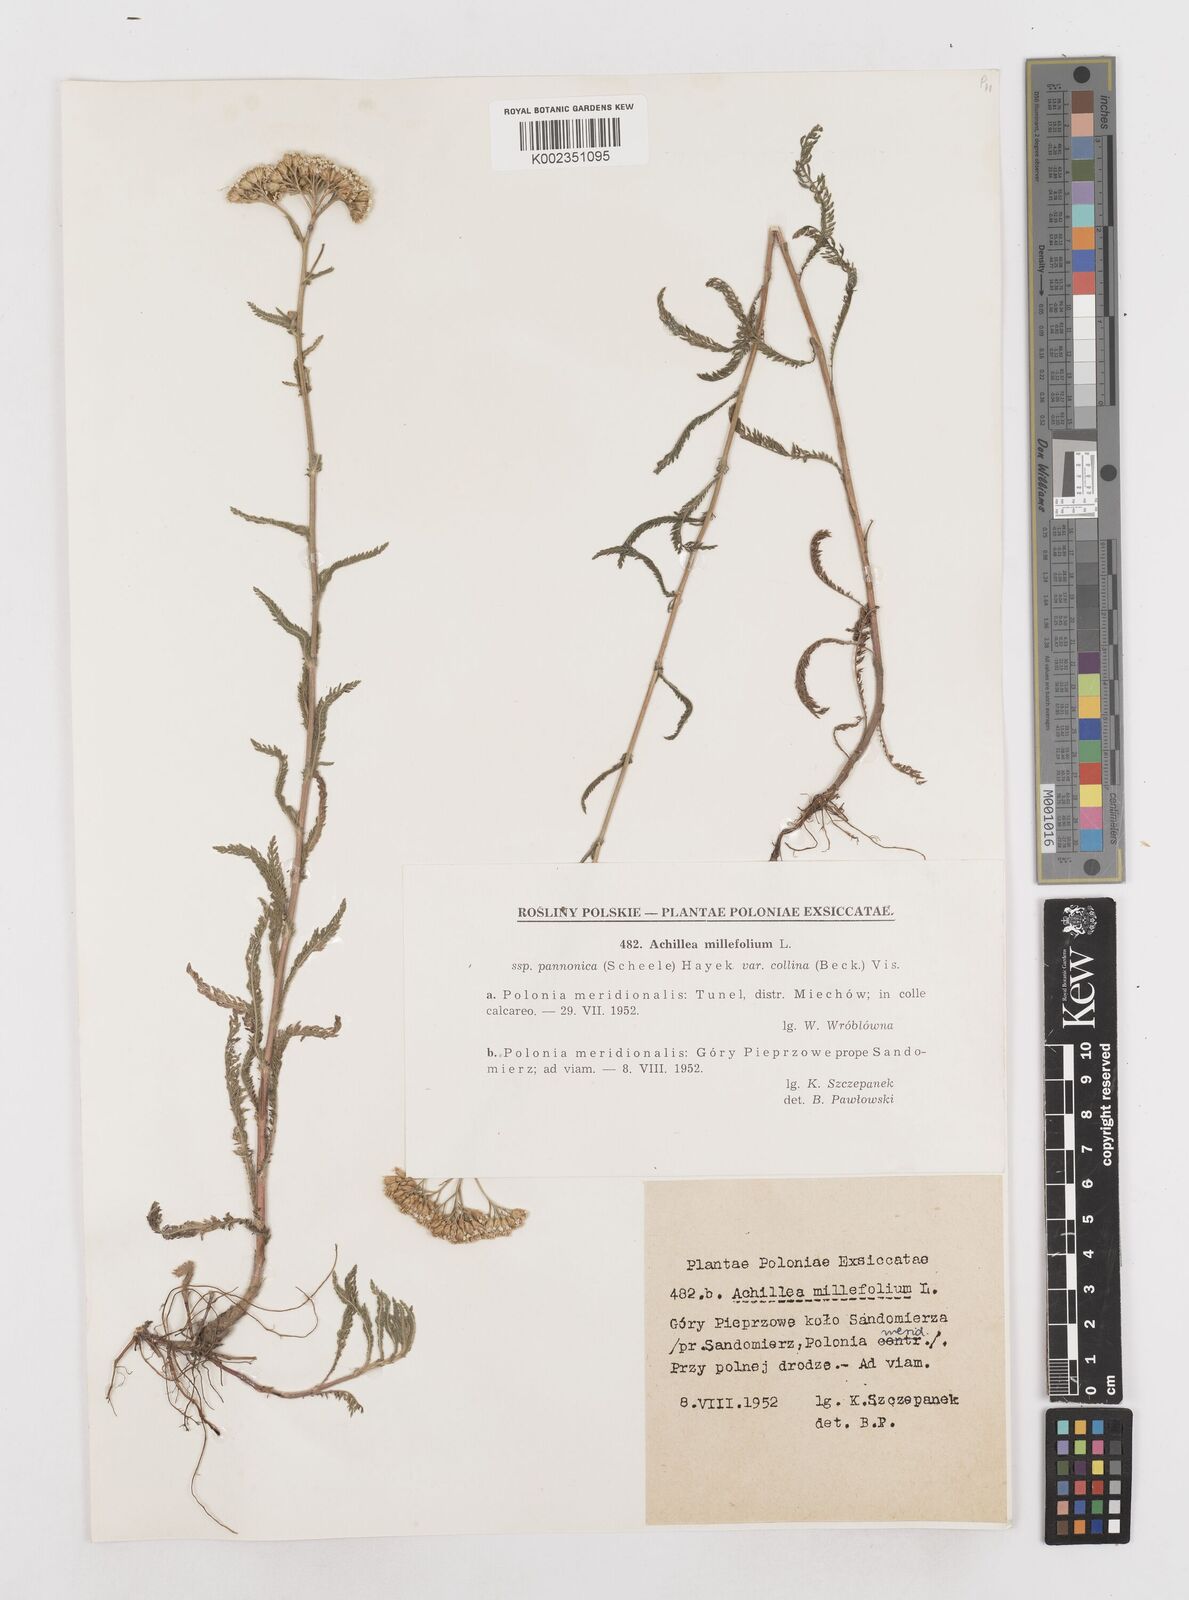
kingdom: Plantae
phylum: Tracheophyta
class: Magnoliopsida
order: Asterales
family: Asteraceae
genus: Achillea
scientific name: Achillea millefolium
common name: Yarrow
